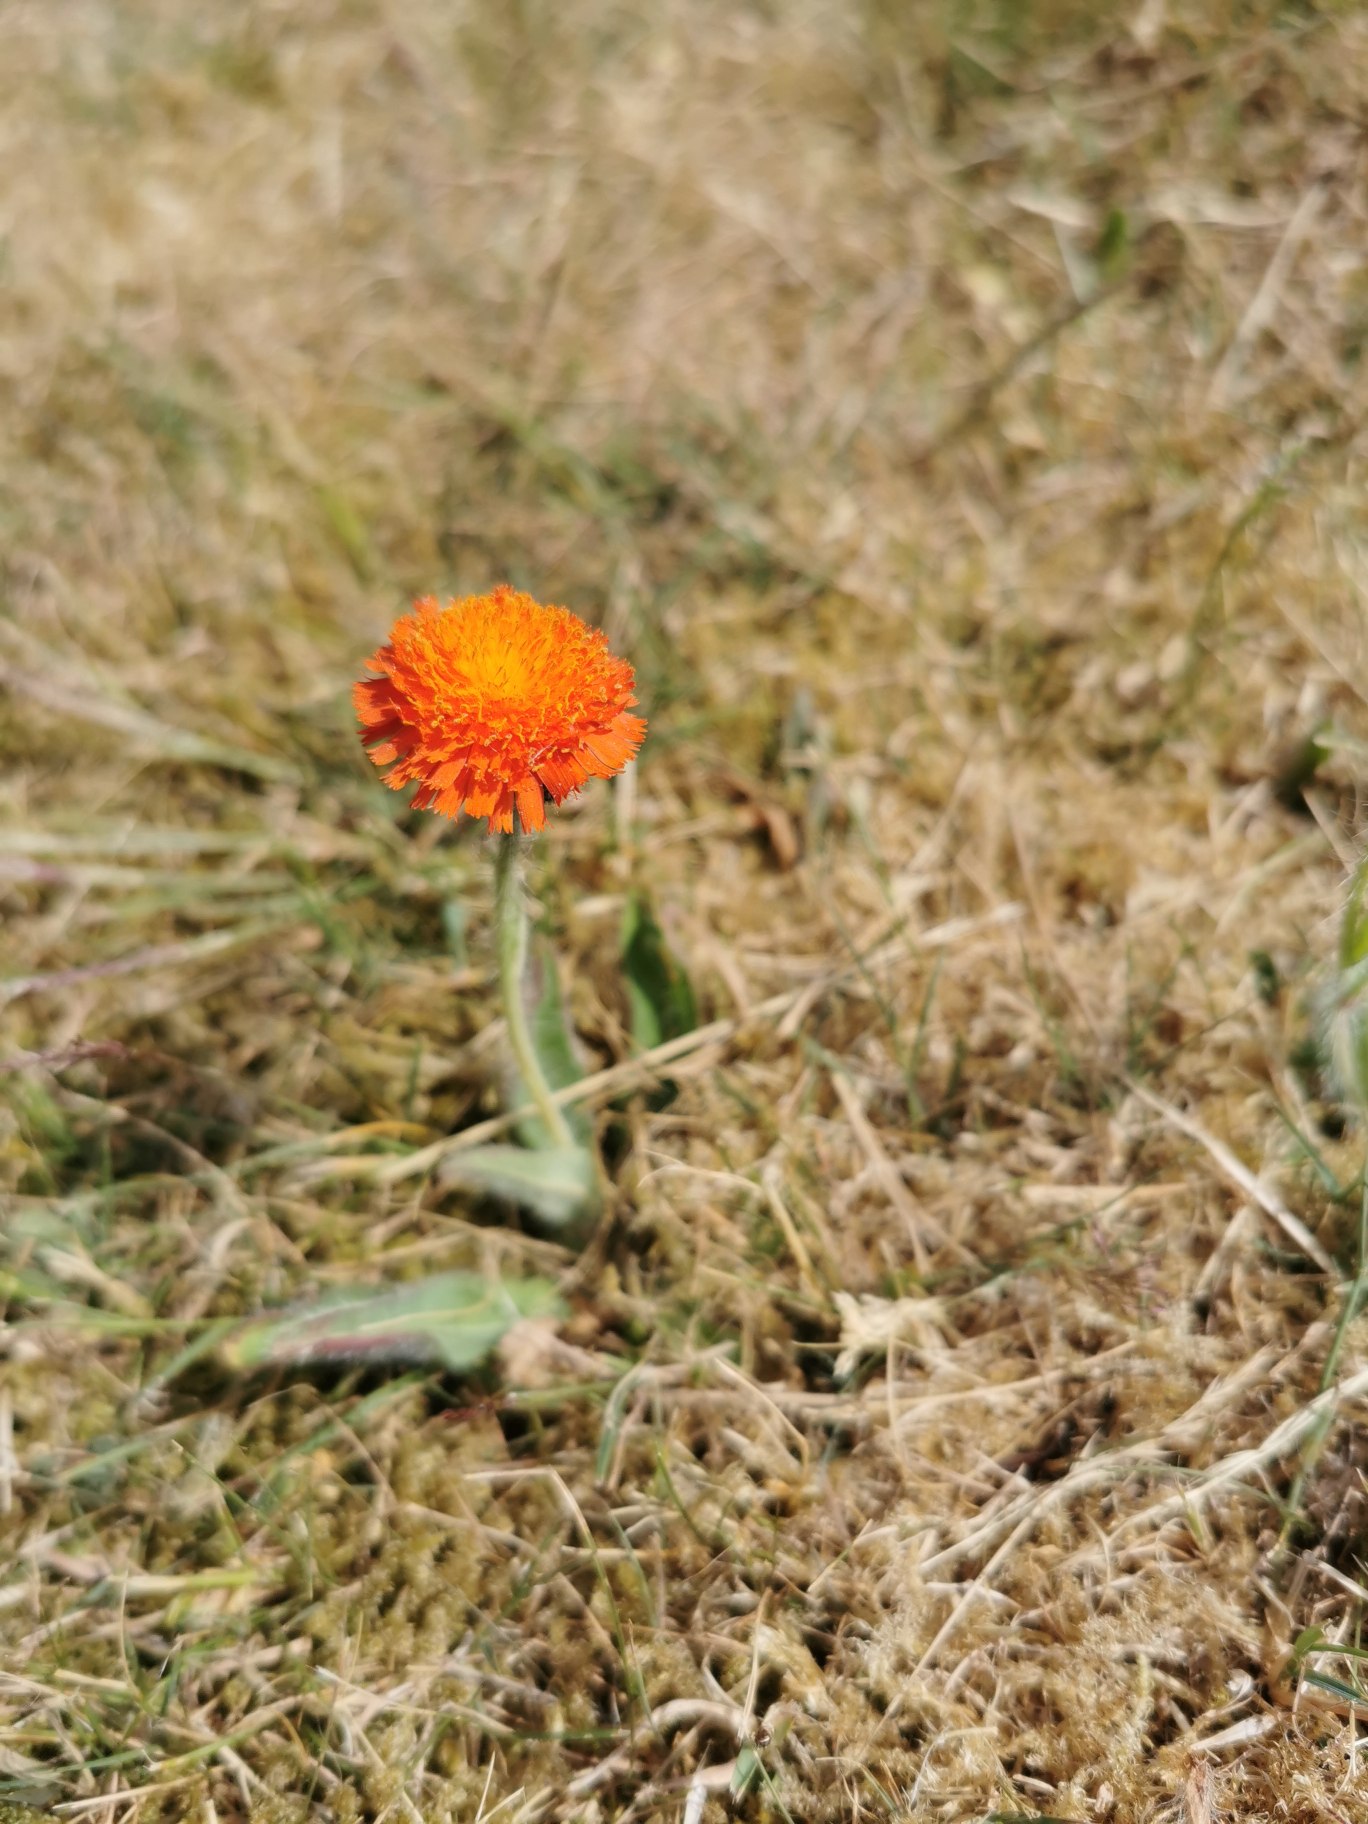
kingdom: Plantae
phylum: Tracheophyta
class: Magnoliopsida
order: Asterales
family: Asteraceae
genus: Pilosella
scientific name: Pilosella aurantiaca
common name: Pomerans-høgeurt
